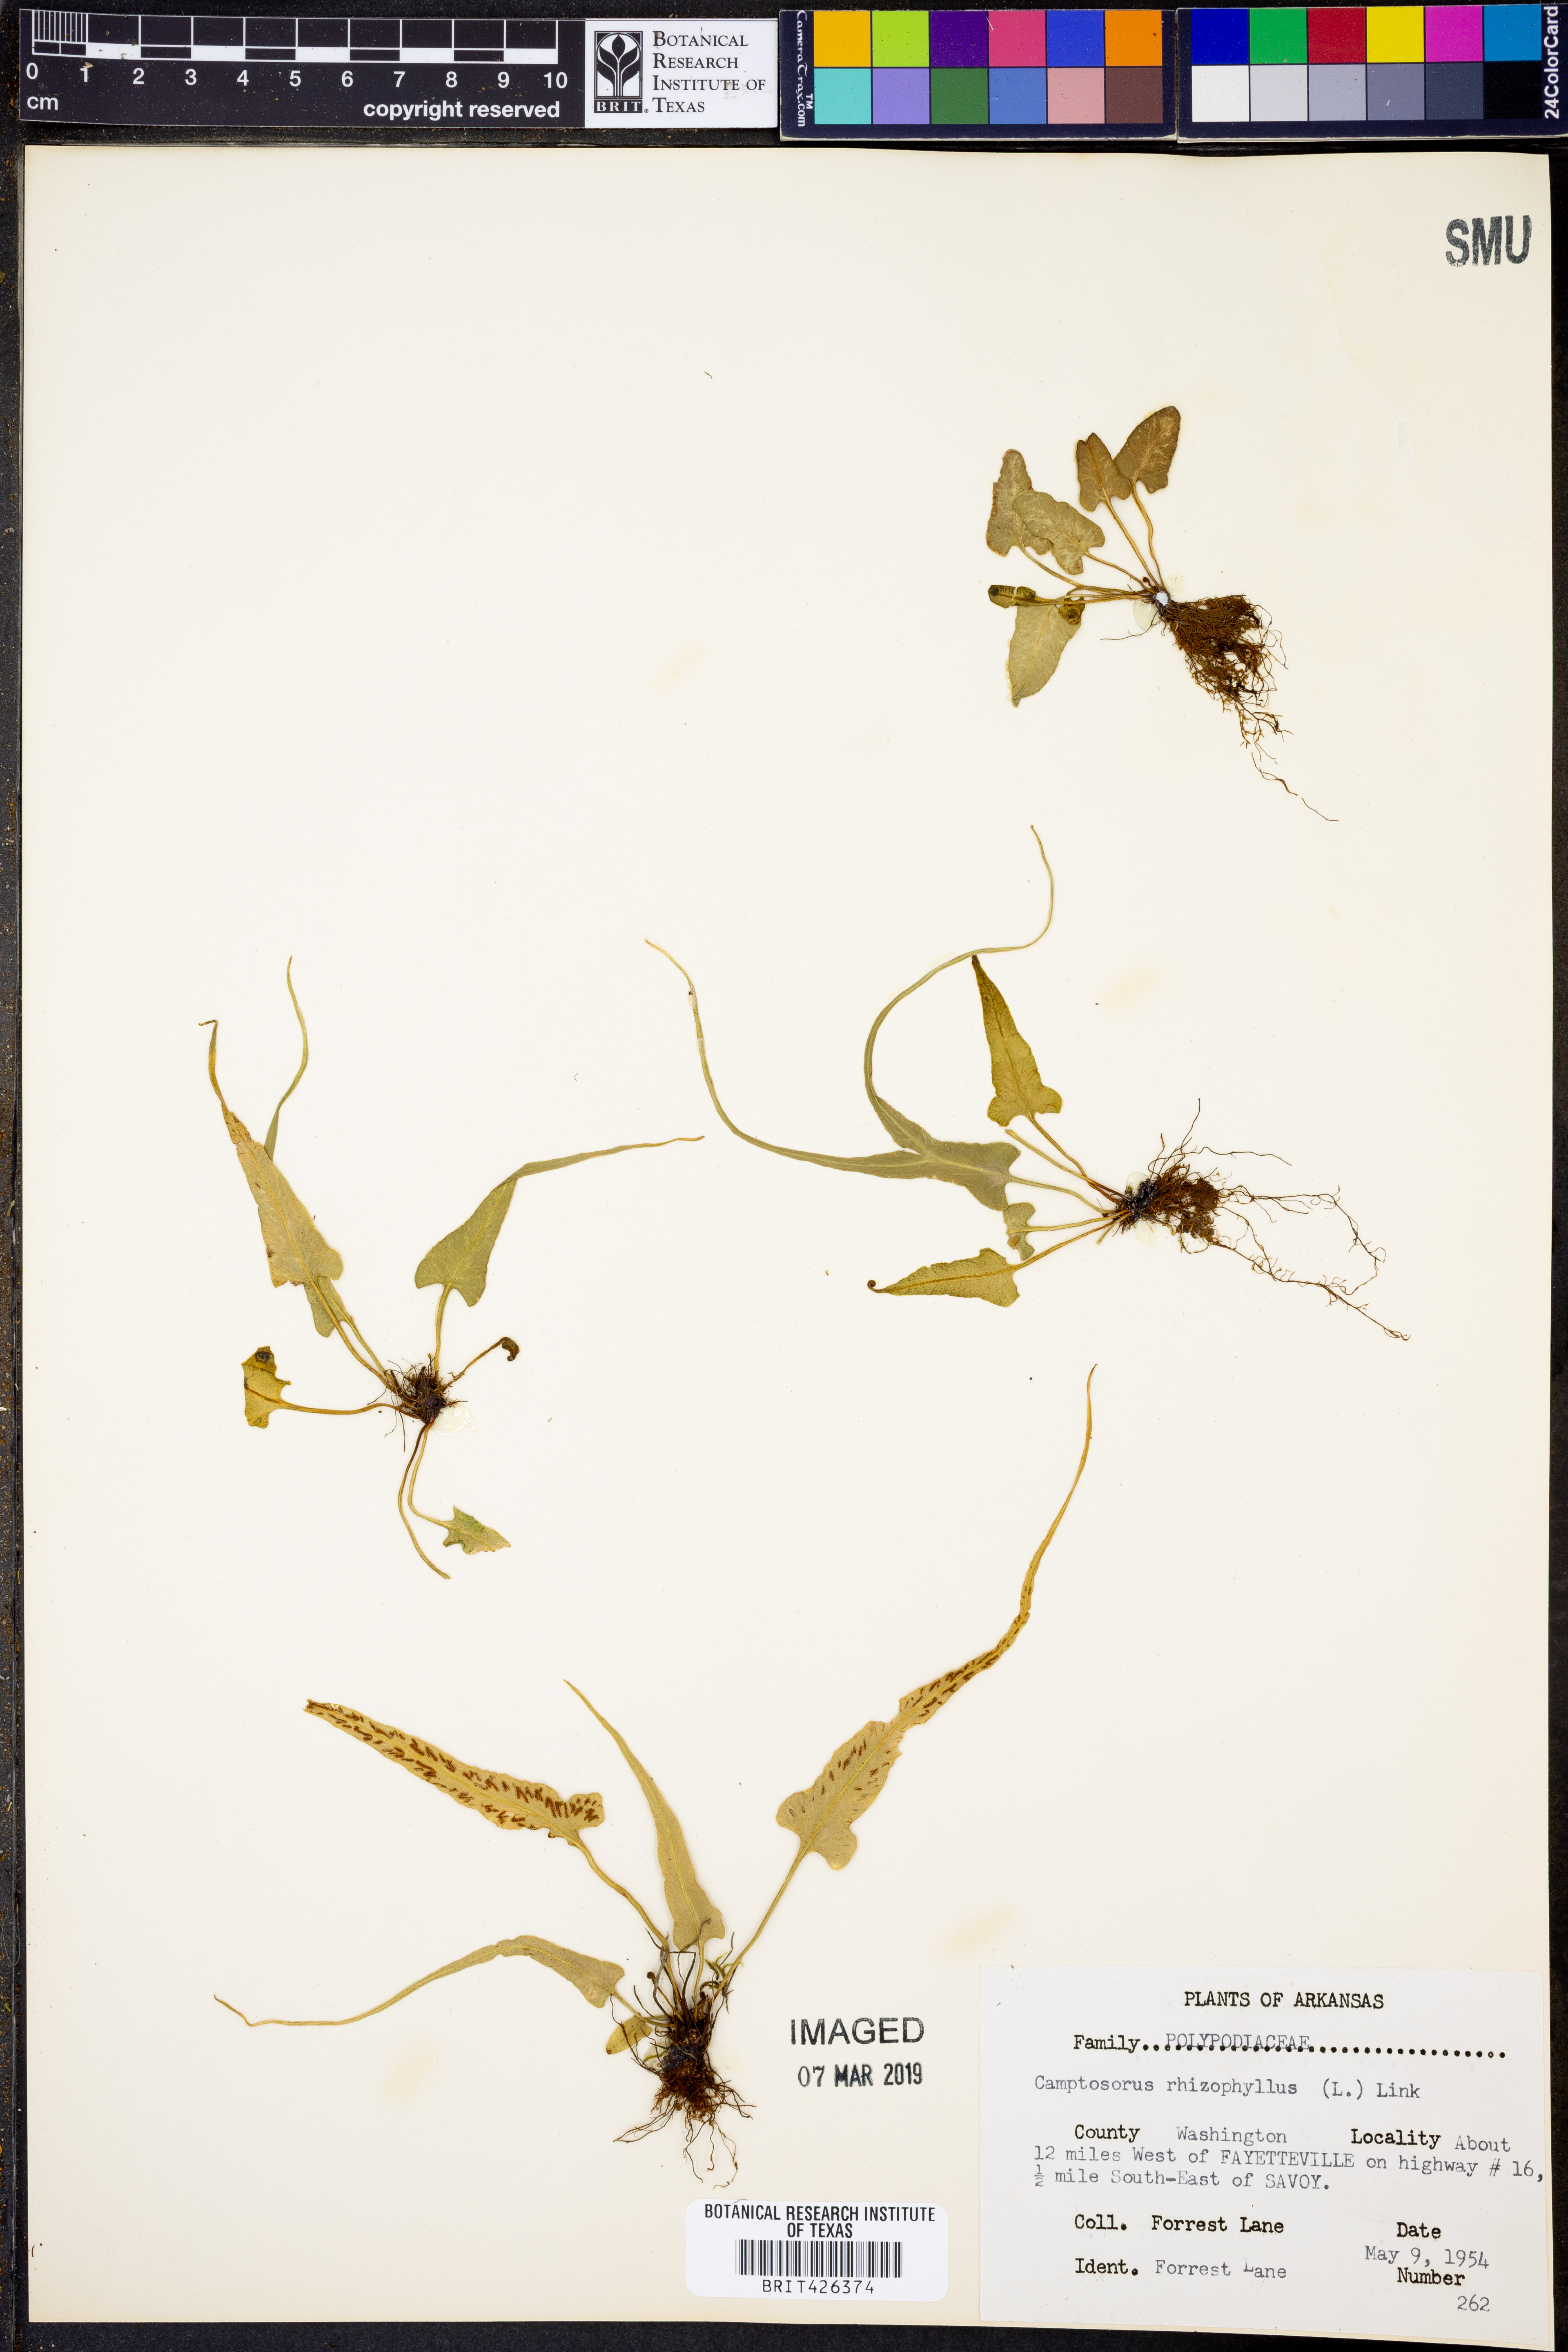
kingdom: Plantae
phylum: Tracheophyta
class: Polypodiopsida
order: Polypodiales
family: Aspleniaceae
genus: Asplenium
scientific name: Asplenium rhizophyllum
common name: Walking fern
